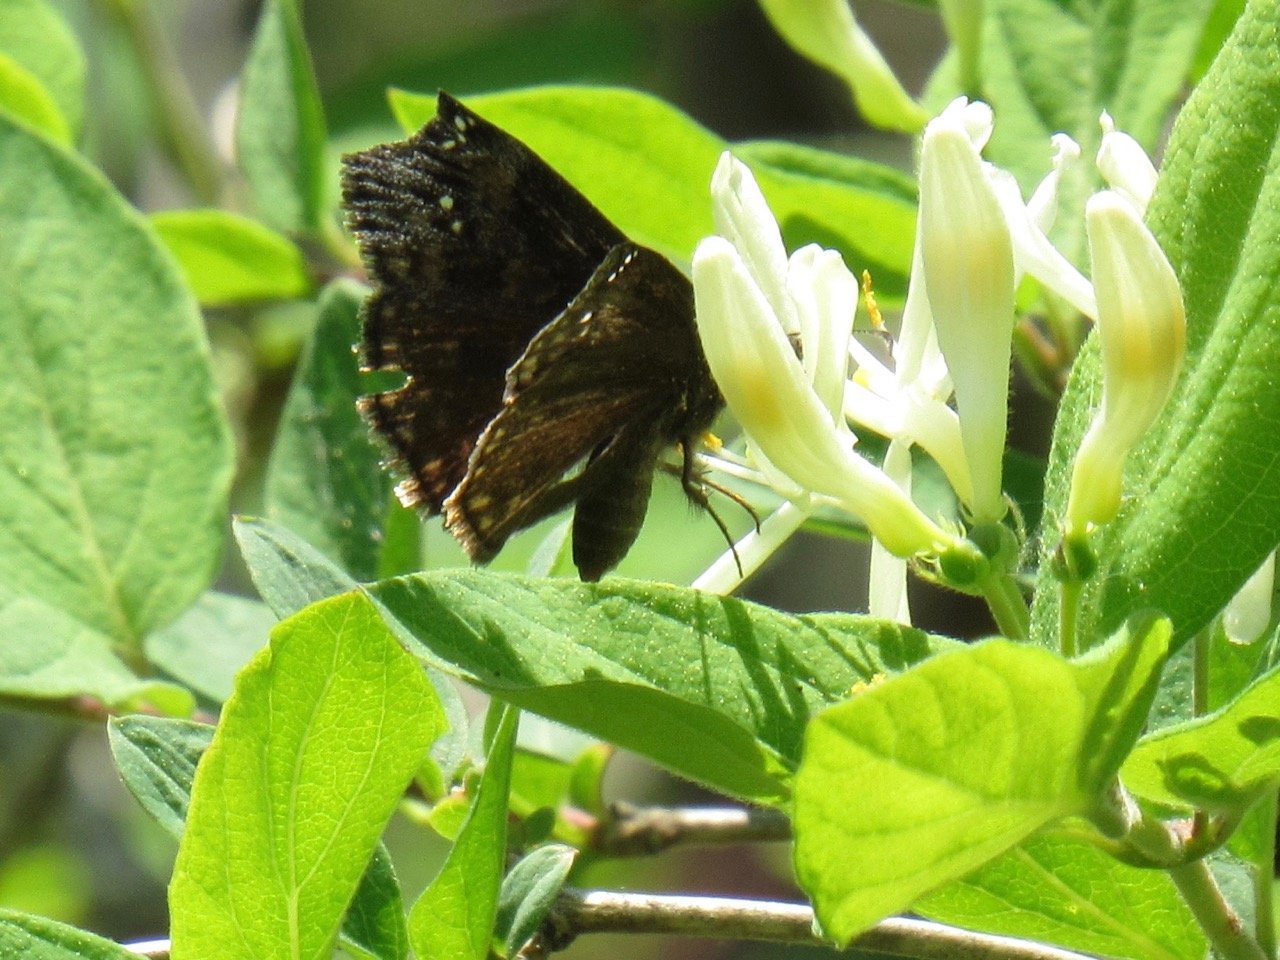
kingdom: Animalia
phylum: Arthropoda
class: Insecta
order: Lepidoptera
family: Hesperiidae
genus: Gesta
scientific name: Gesta
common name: Juvenal's Duskywing
